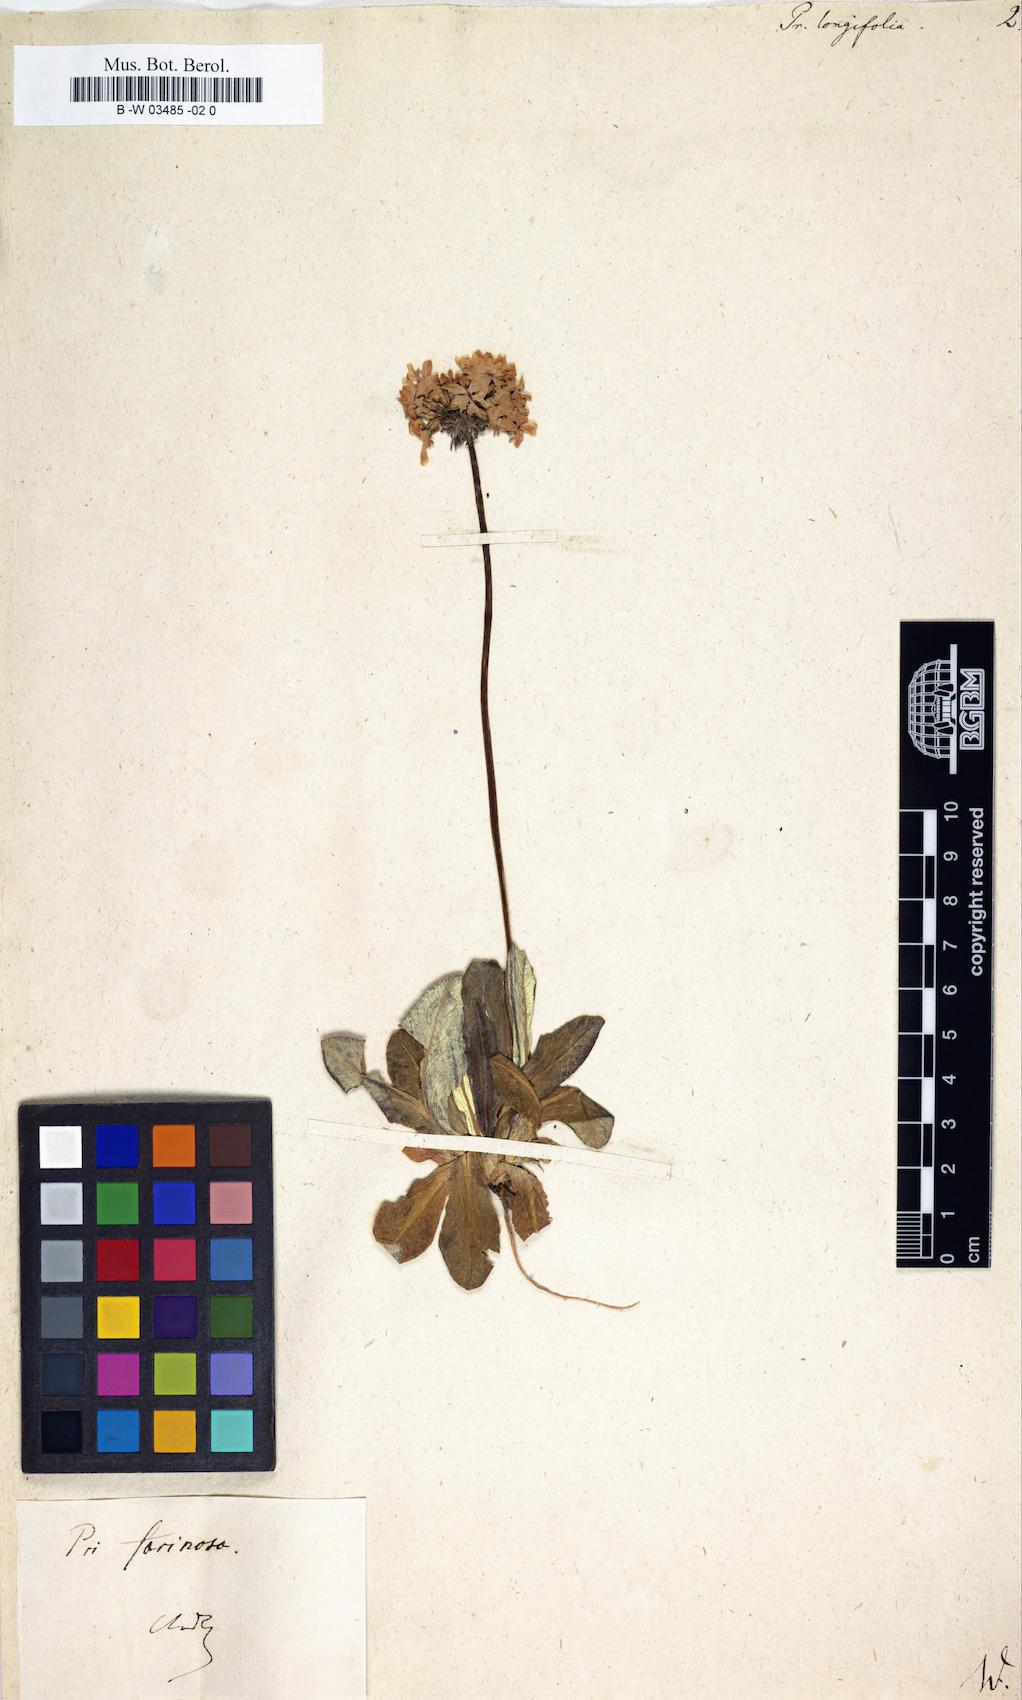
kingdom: Plantae
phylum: Tracheophyta
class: Magnoliopsida
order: Ericales
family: Primulaceae
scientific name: Primulaceae
